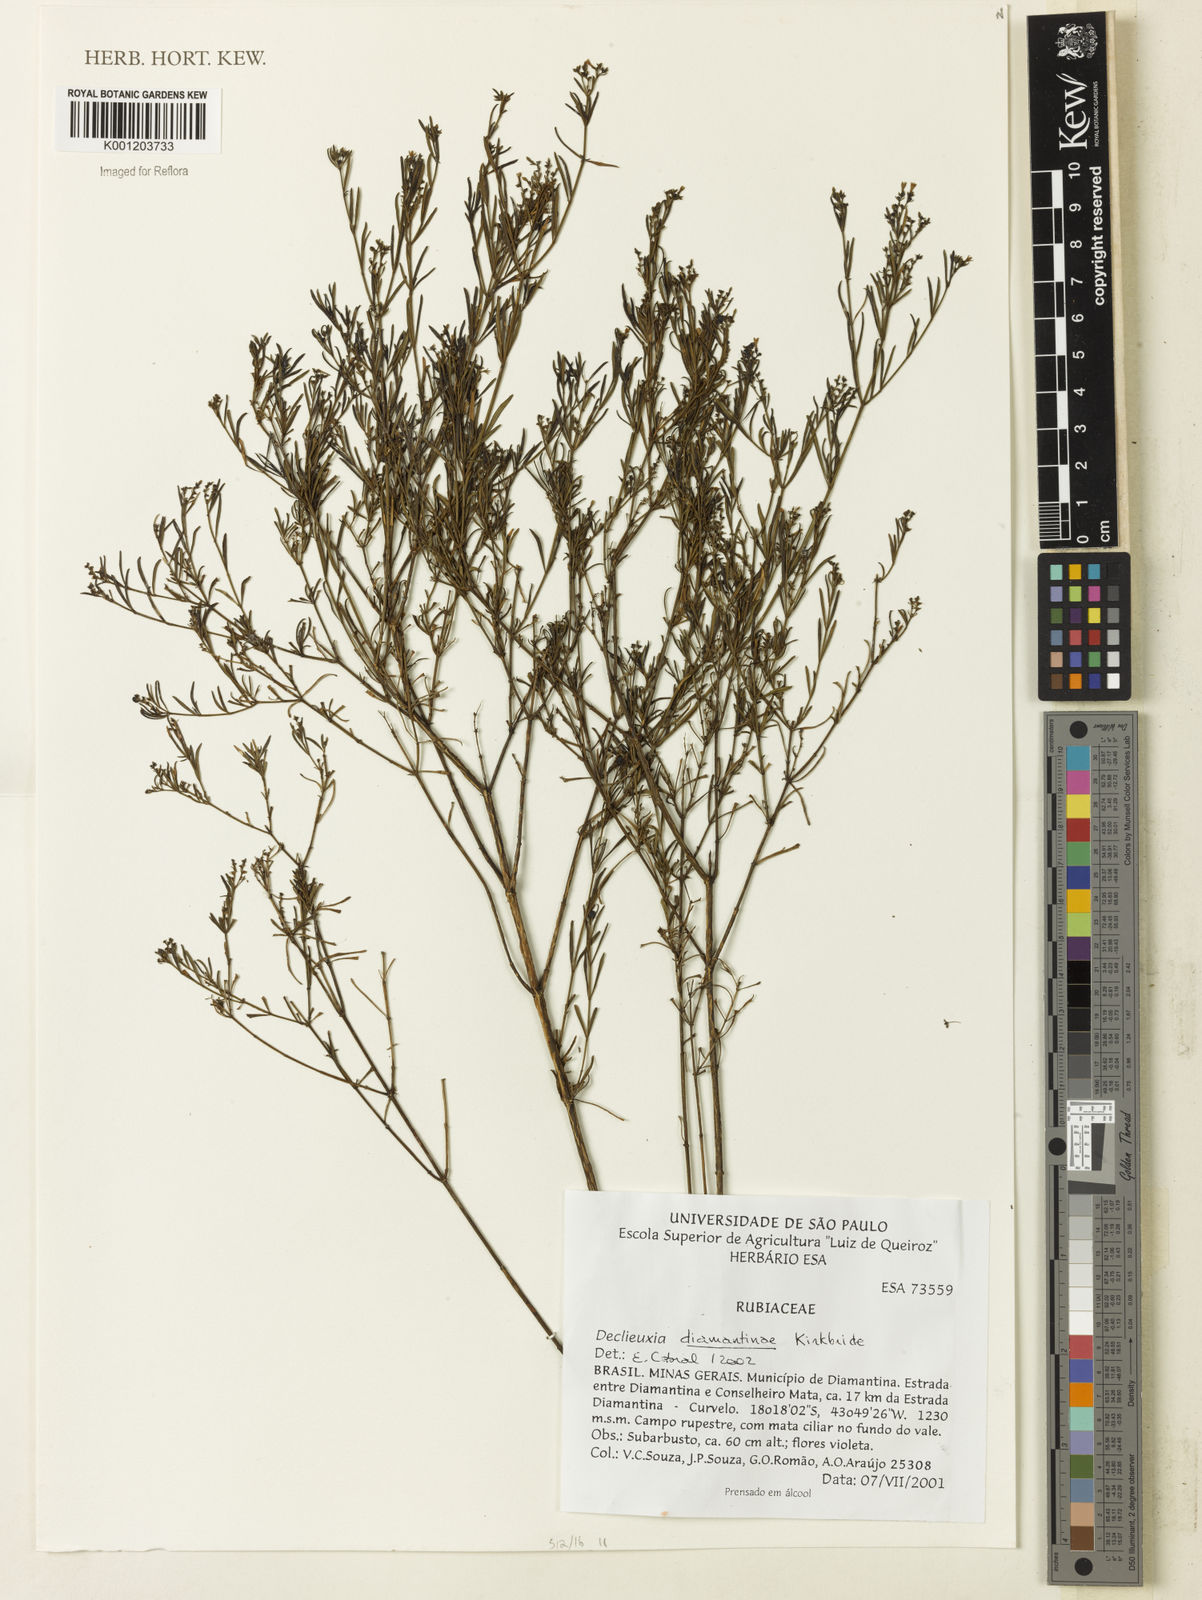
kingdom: Plantae
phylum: Tracheophyta
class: Magnoliopsida
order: Gentianales
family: Rubiaceae
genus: Declieuxia
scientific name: Declieuxia diamantinae
